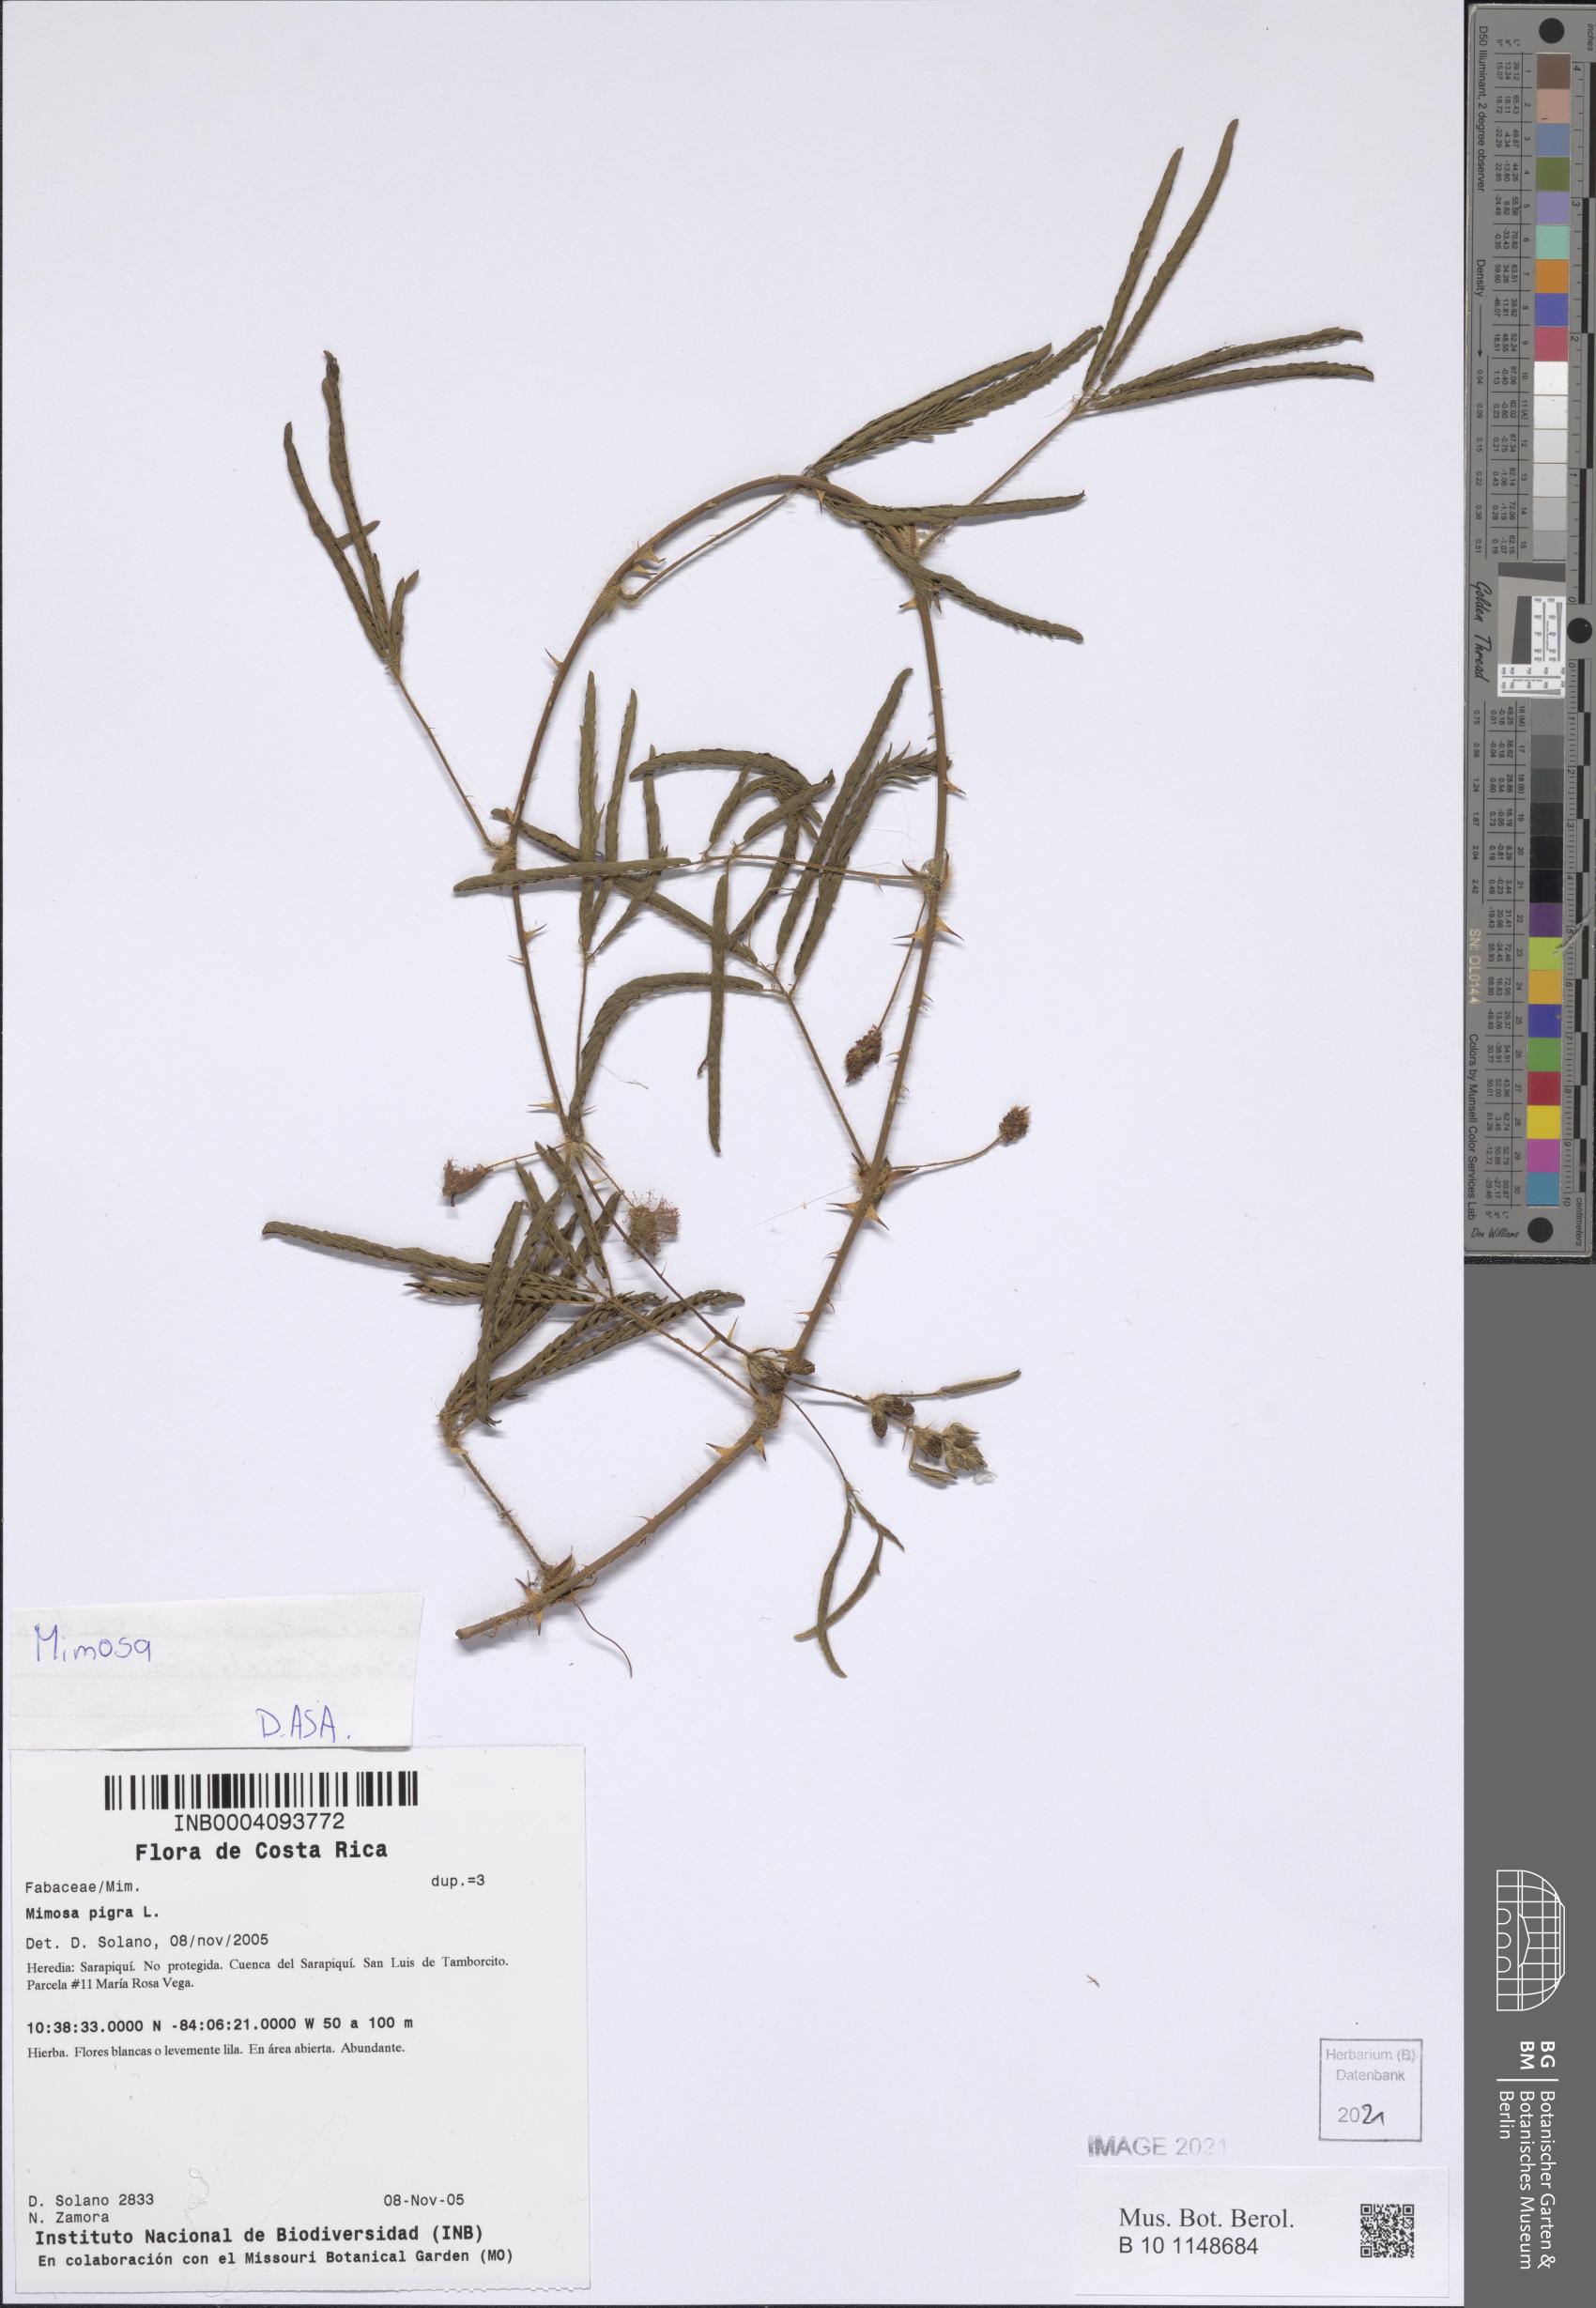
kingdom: Plantae
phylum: Tracheophyta
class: Magnoliopsida
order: Fabales
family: Fabaceae
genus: Mimosa
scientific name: Mimosa pigra
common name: Black mimosa
